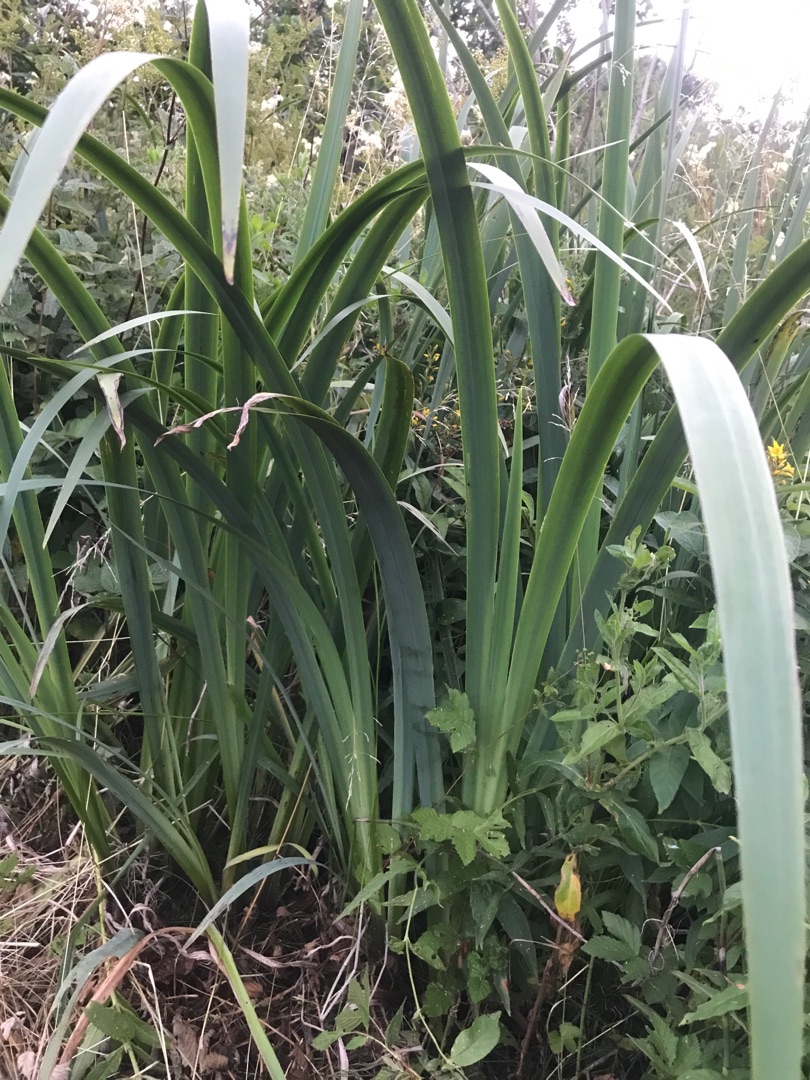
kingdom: Plantae
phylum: Tracheophyta
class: Liliopsida
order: Asparagales
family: Iridaceae
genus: Iris
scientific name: Iris pseudacorus
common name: Gul iris
